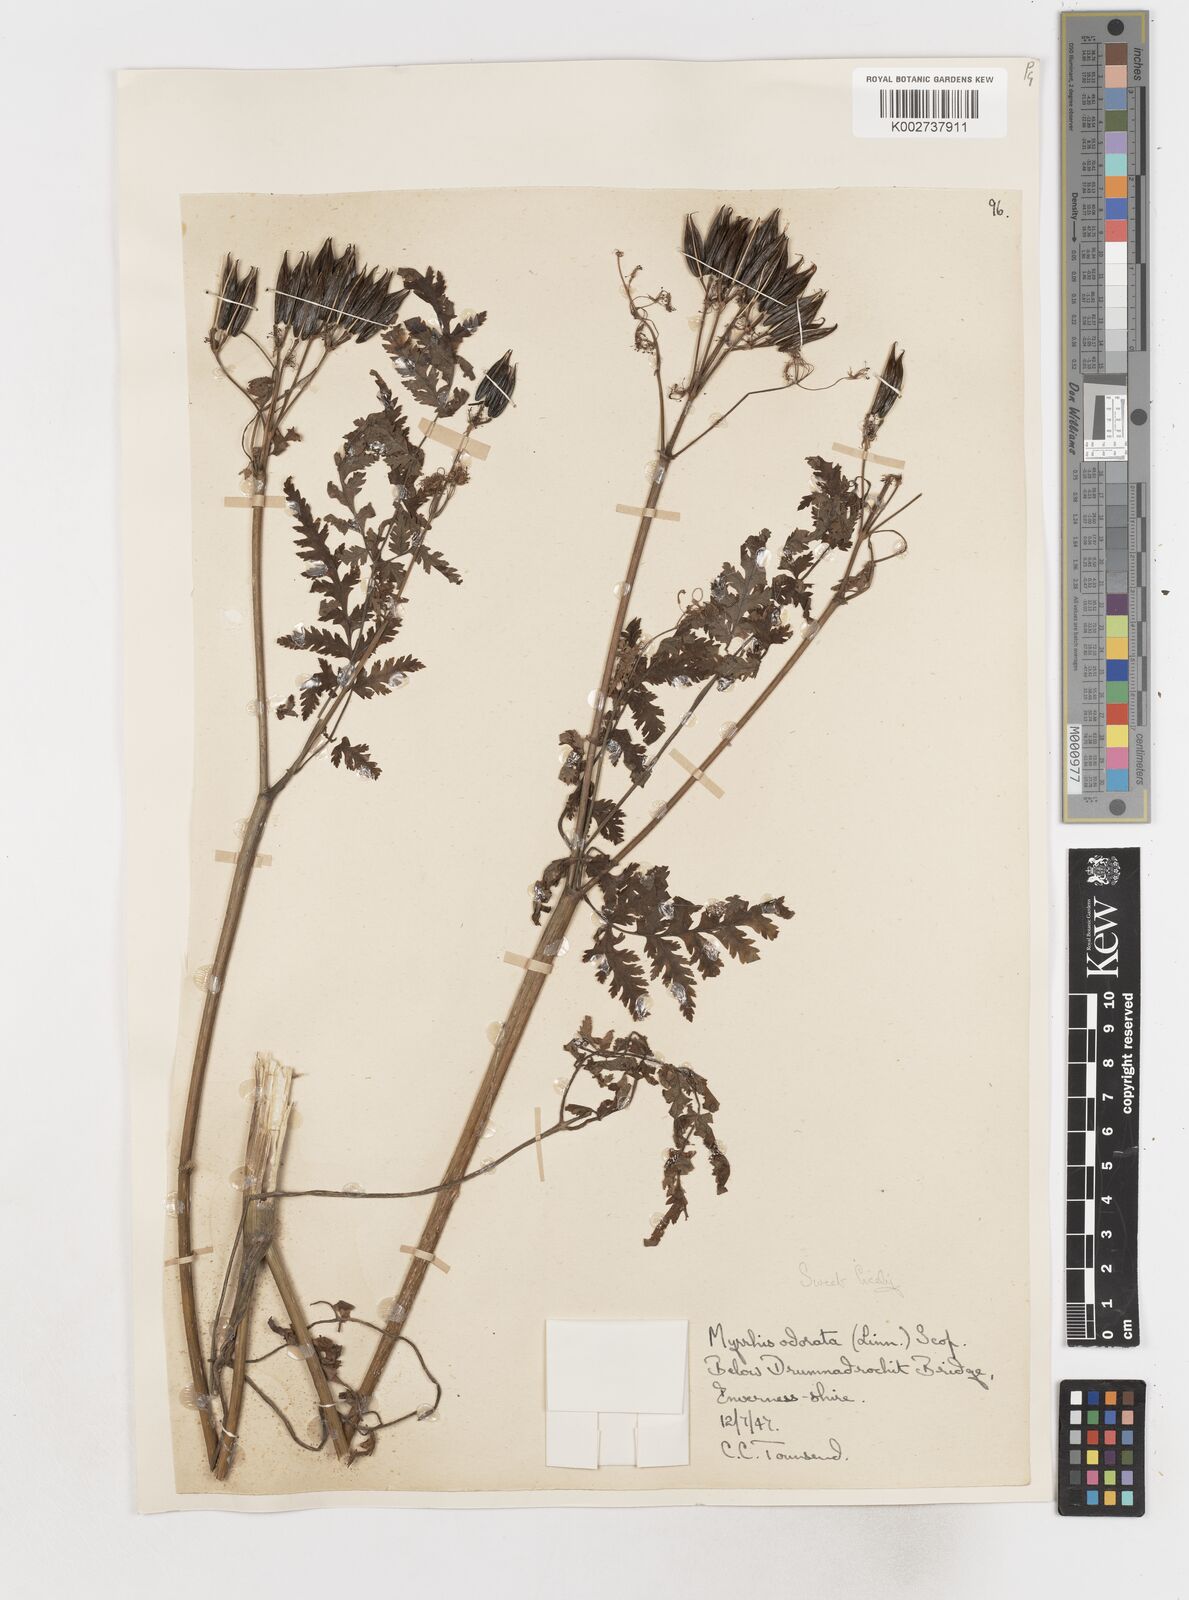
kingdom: Plantae
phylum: Tracheophyta
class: Magnoliopsida
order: Apiales
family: Apiaceae
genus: Myrrhis
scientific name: Myrrhis odorata
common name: Sweet cicely
